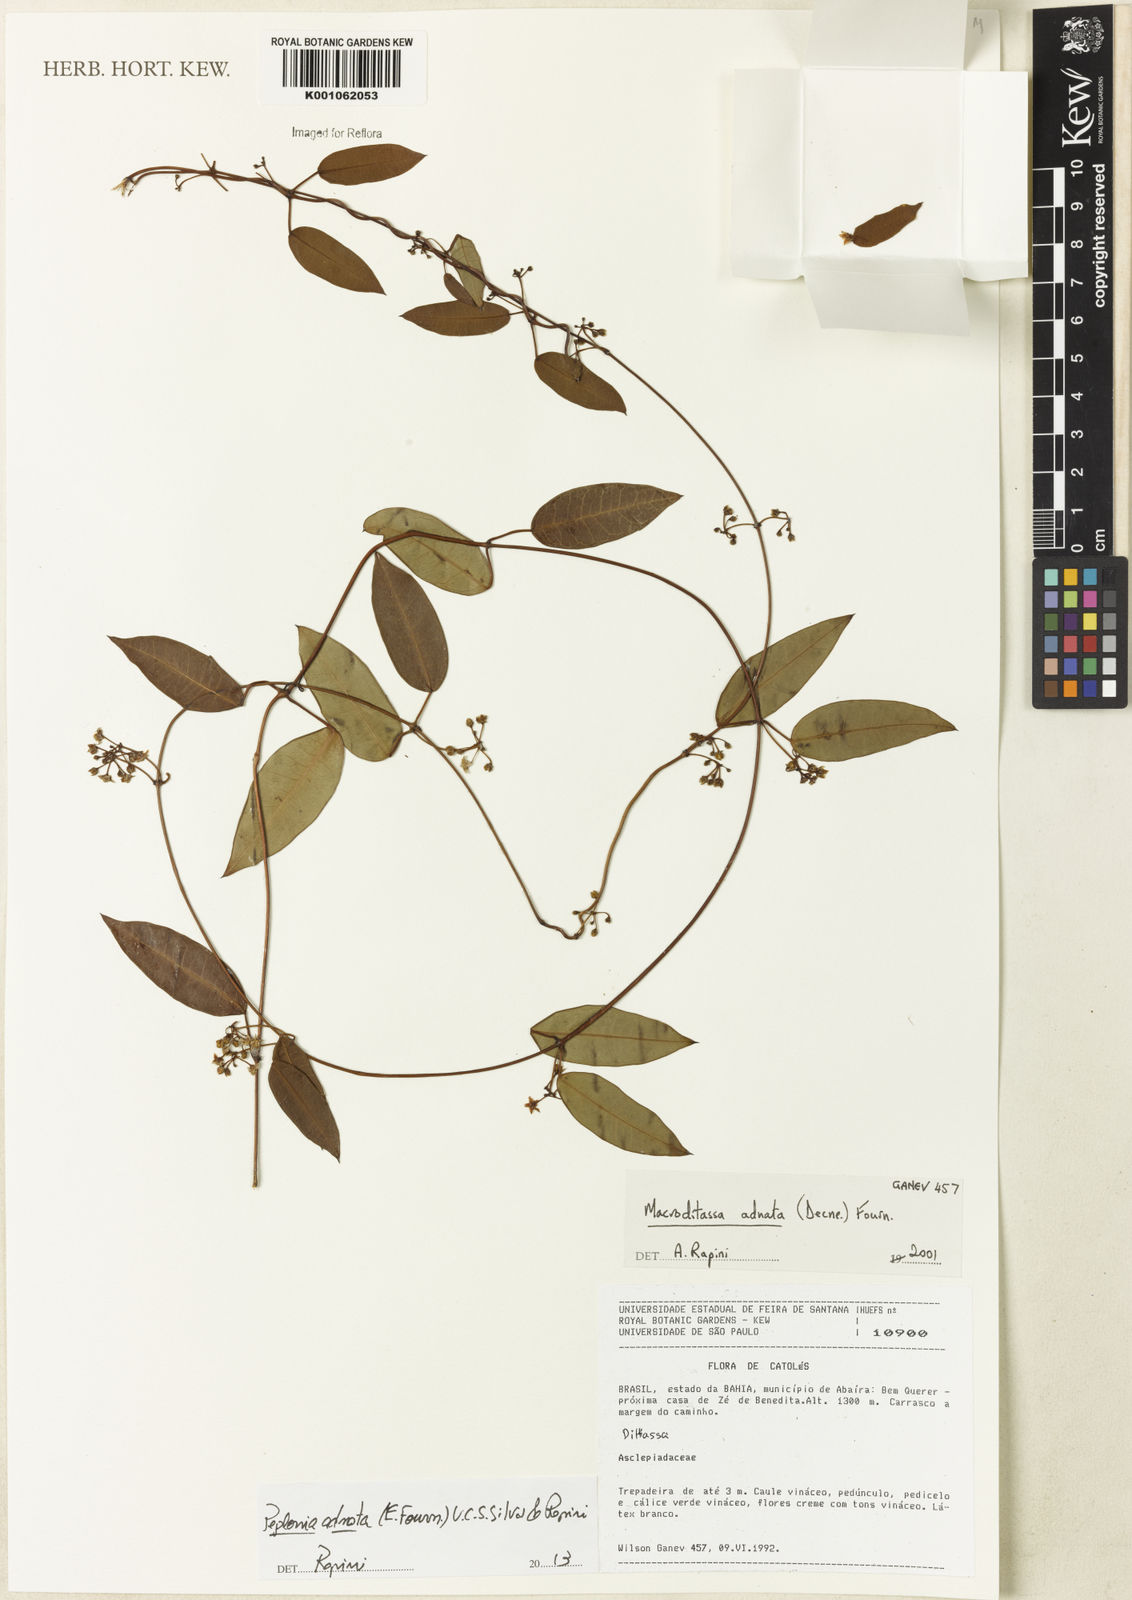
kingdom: Plantae
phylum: Tracheophyta
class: Magnoliopsida
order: Gentianales
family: Apocynaceae
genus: Peplonia
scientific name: Peplonia adnata
